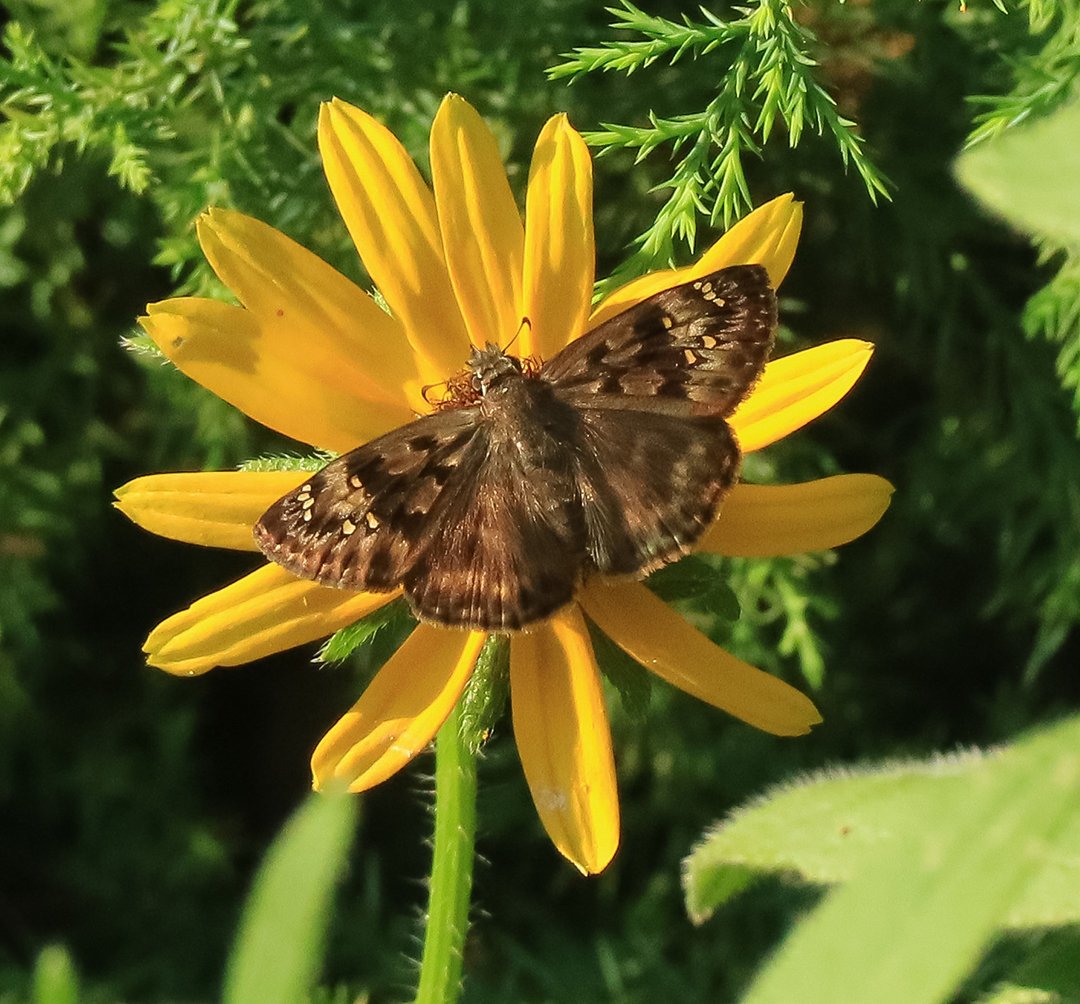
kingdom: Animalia
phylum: Arthropoda
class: Insecta
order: Lepidoptera
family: Hesperiidae
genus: Gesta
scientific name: Gesta
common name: Horace's Duskywing
